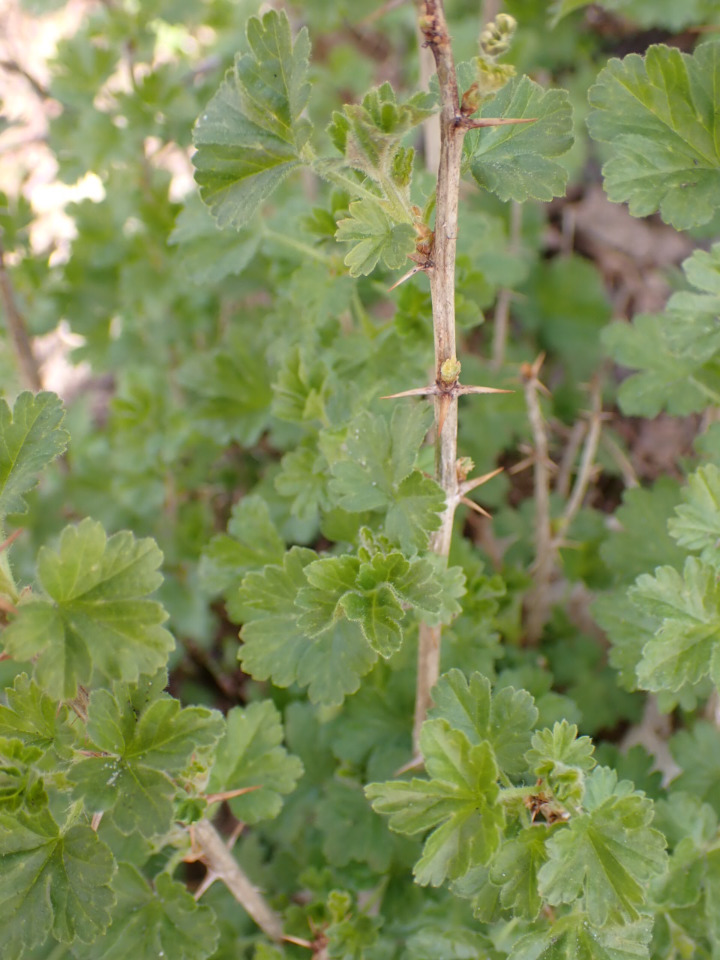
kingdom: Plantae
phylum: Tracheophyta
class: Magnoliopsida
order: Saxifragales
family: Grossulariaceae
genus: Ribes
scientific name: Ribes uva-crispa
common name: Stikkelsbær
